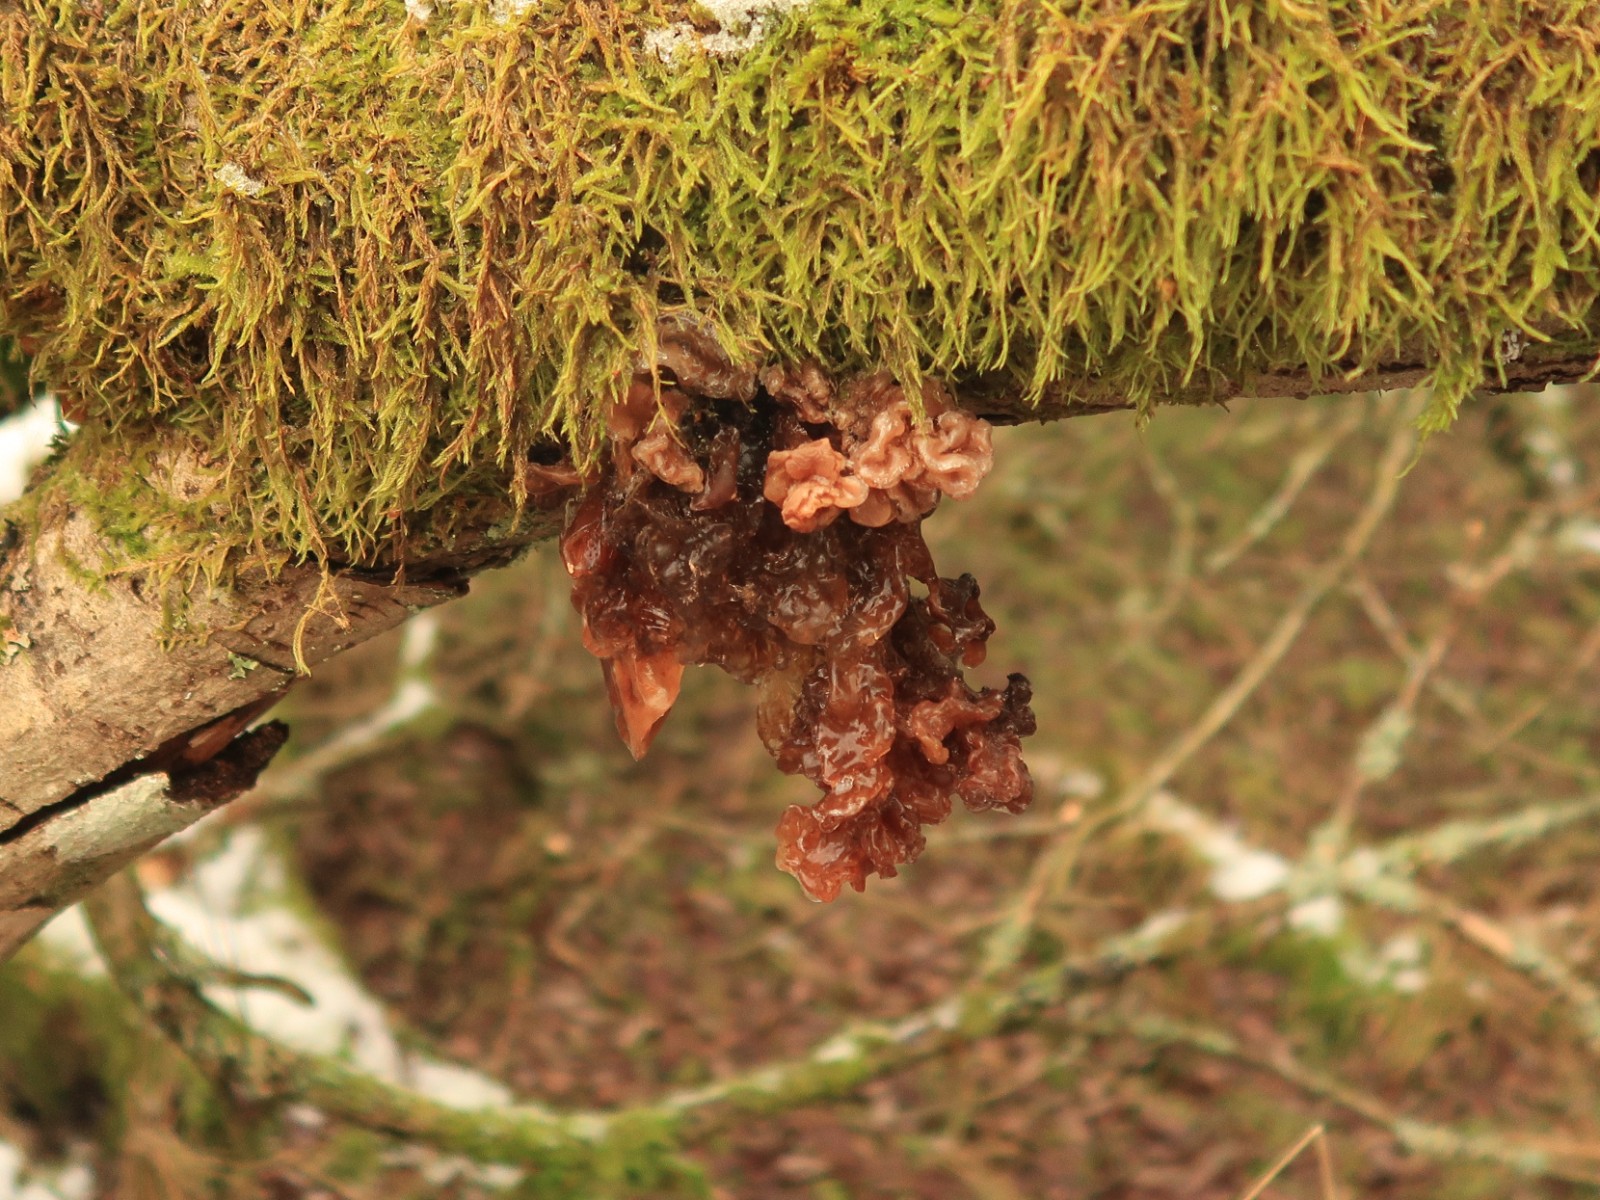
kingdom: Fungi
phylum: Basidiomycota
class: Tremellomycetes
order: Tremellales
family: Tremellaceae
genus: Phaeotremella
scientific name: Phaeotremella frondosa
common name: kæmpe-bævresvamp
